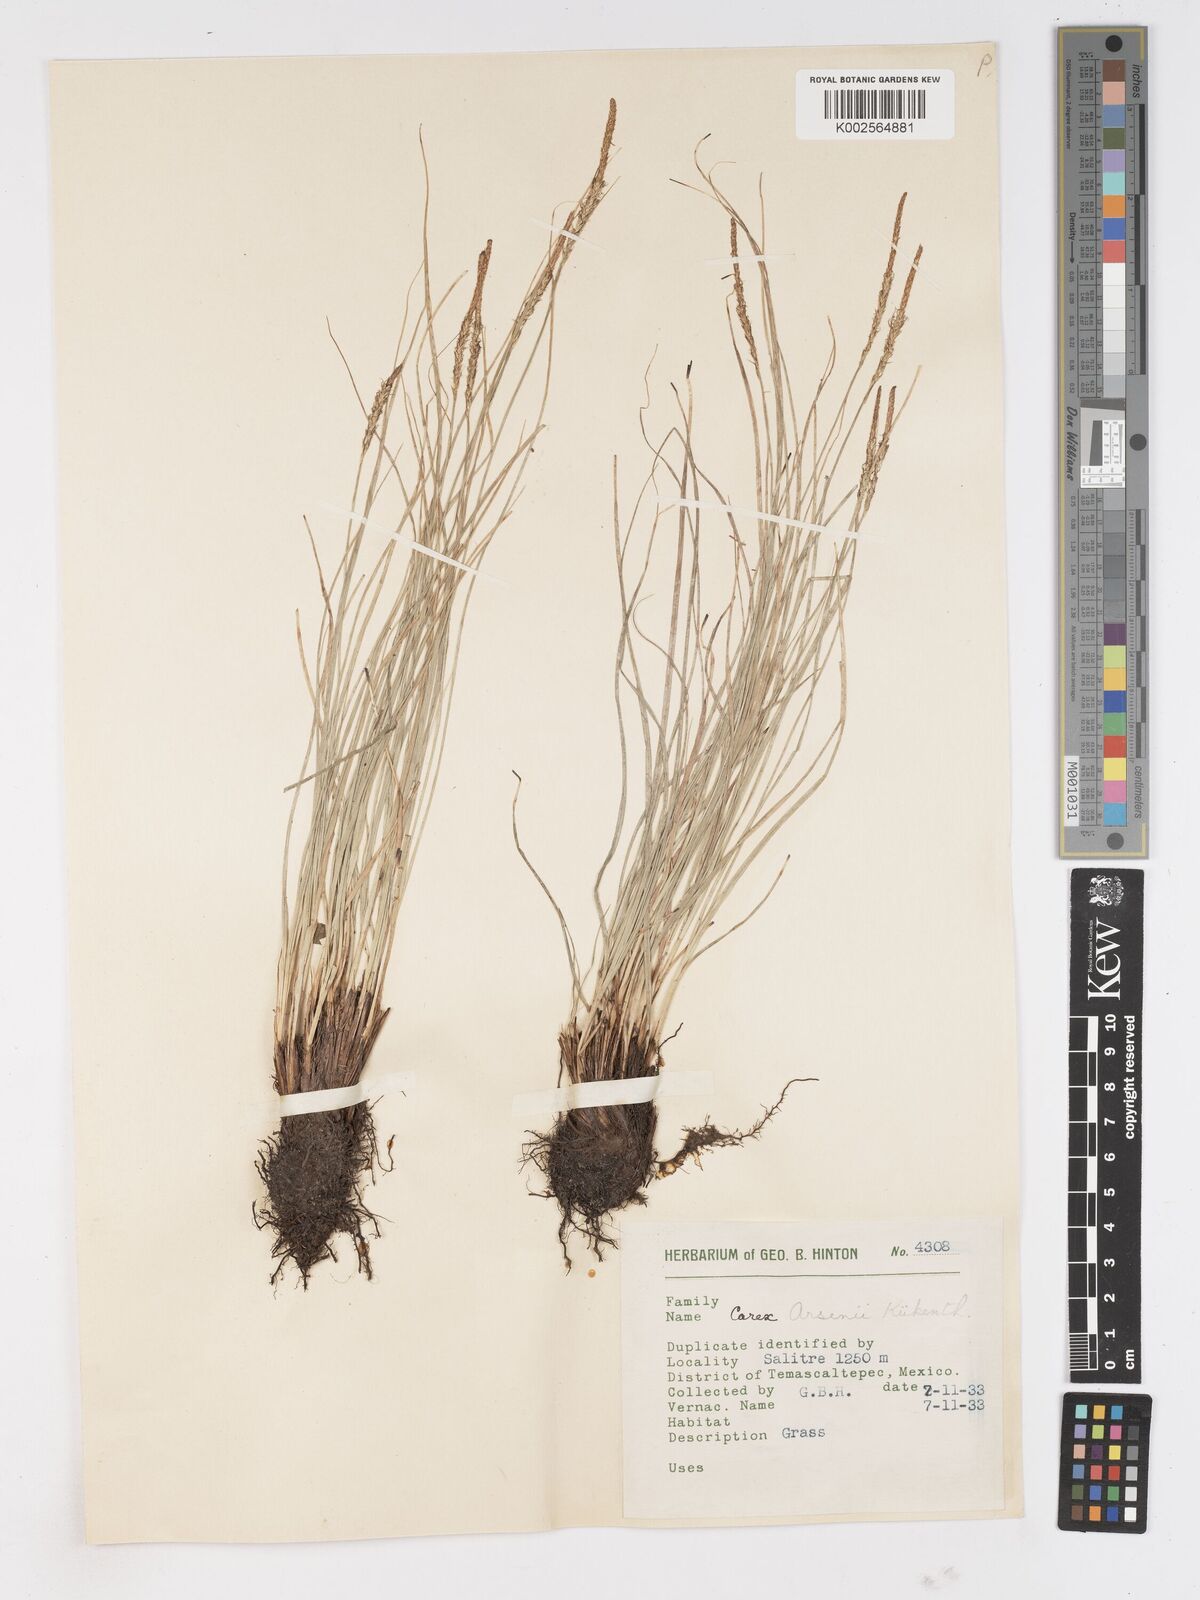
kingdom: Plantae
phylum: Tracheophyta
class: Liliopsida
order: Poales
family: Cyperaceae
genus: Carex
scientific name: Carex arsenei
